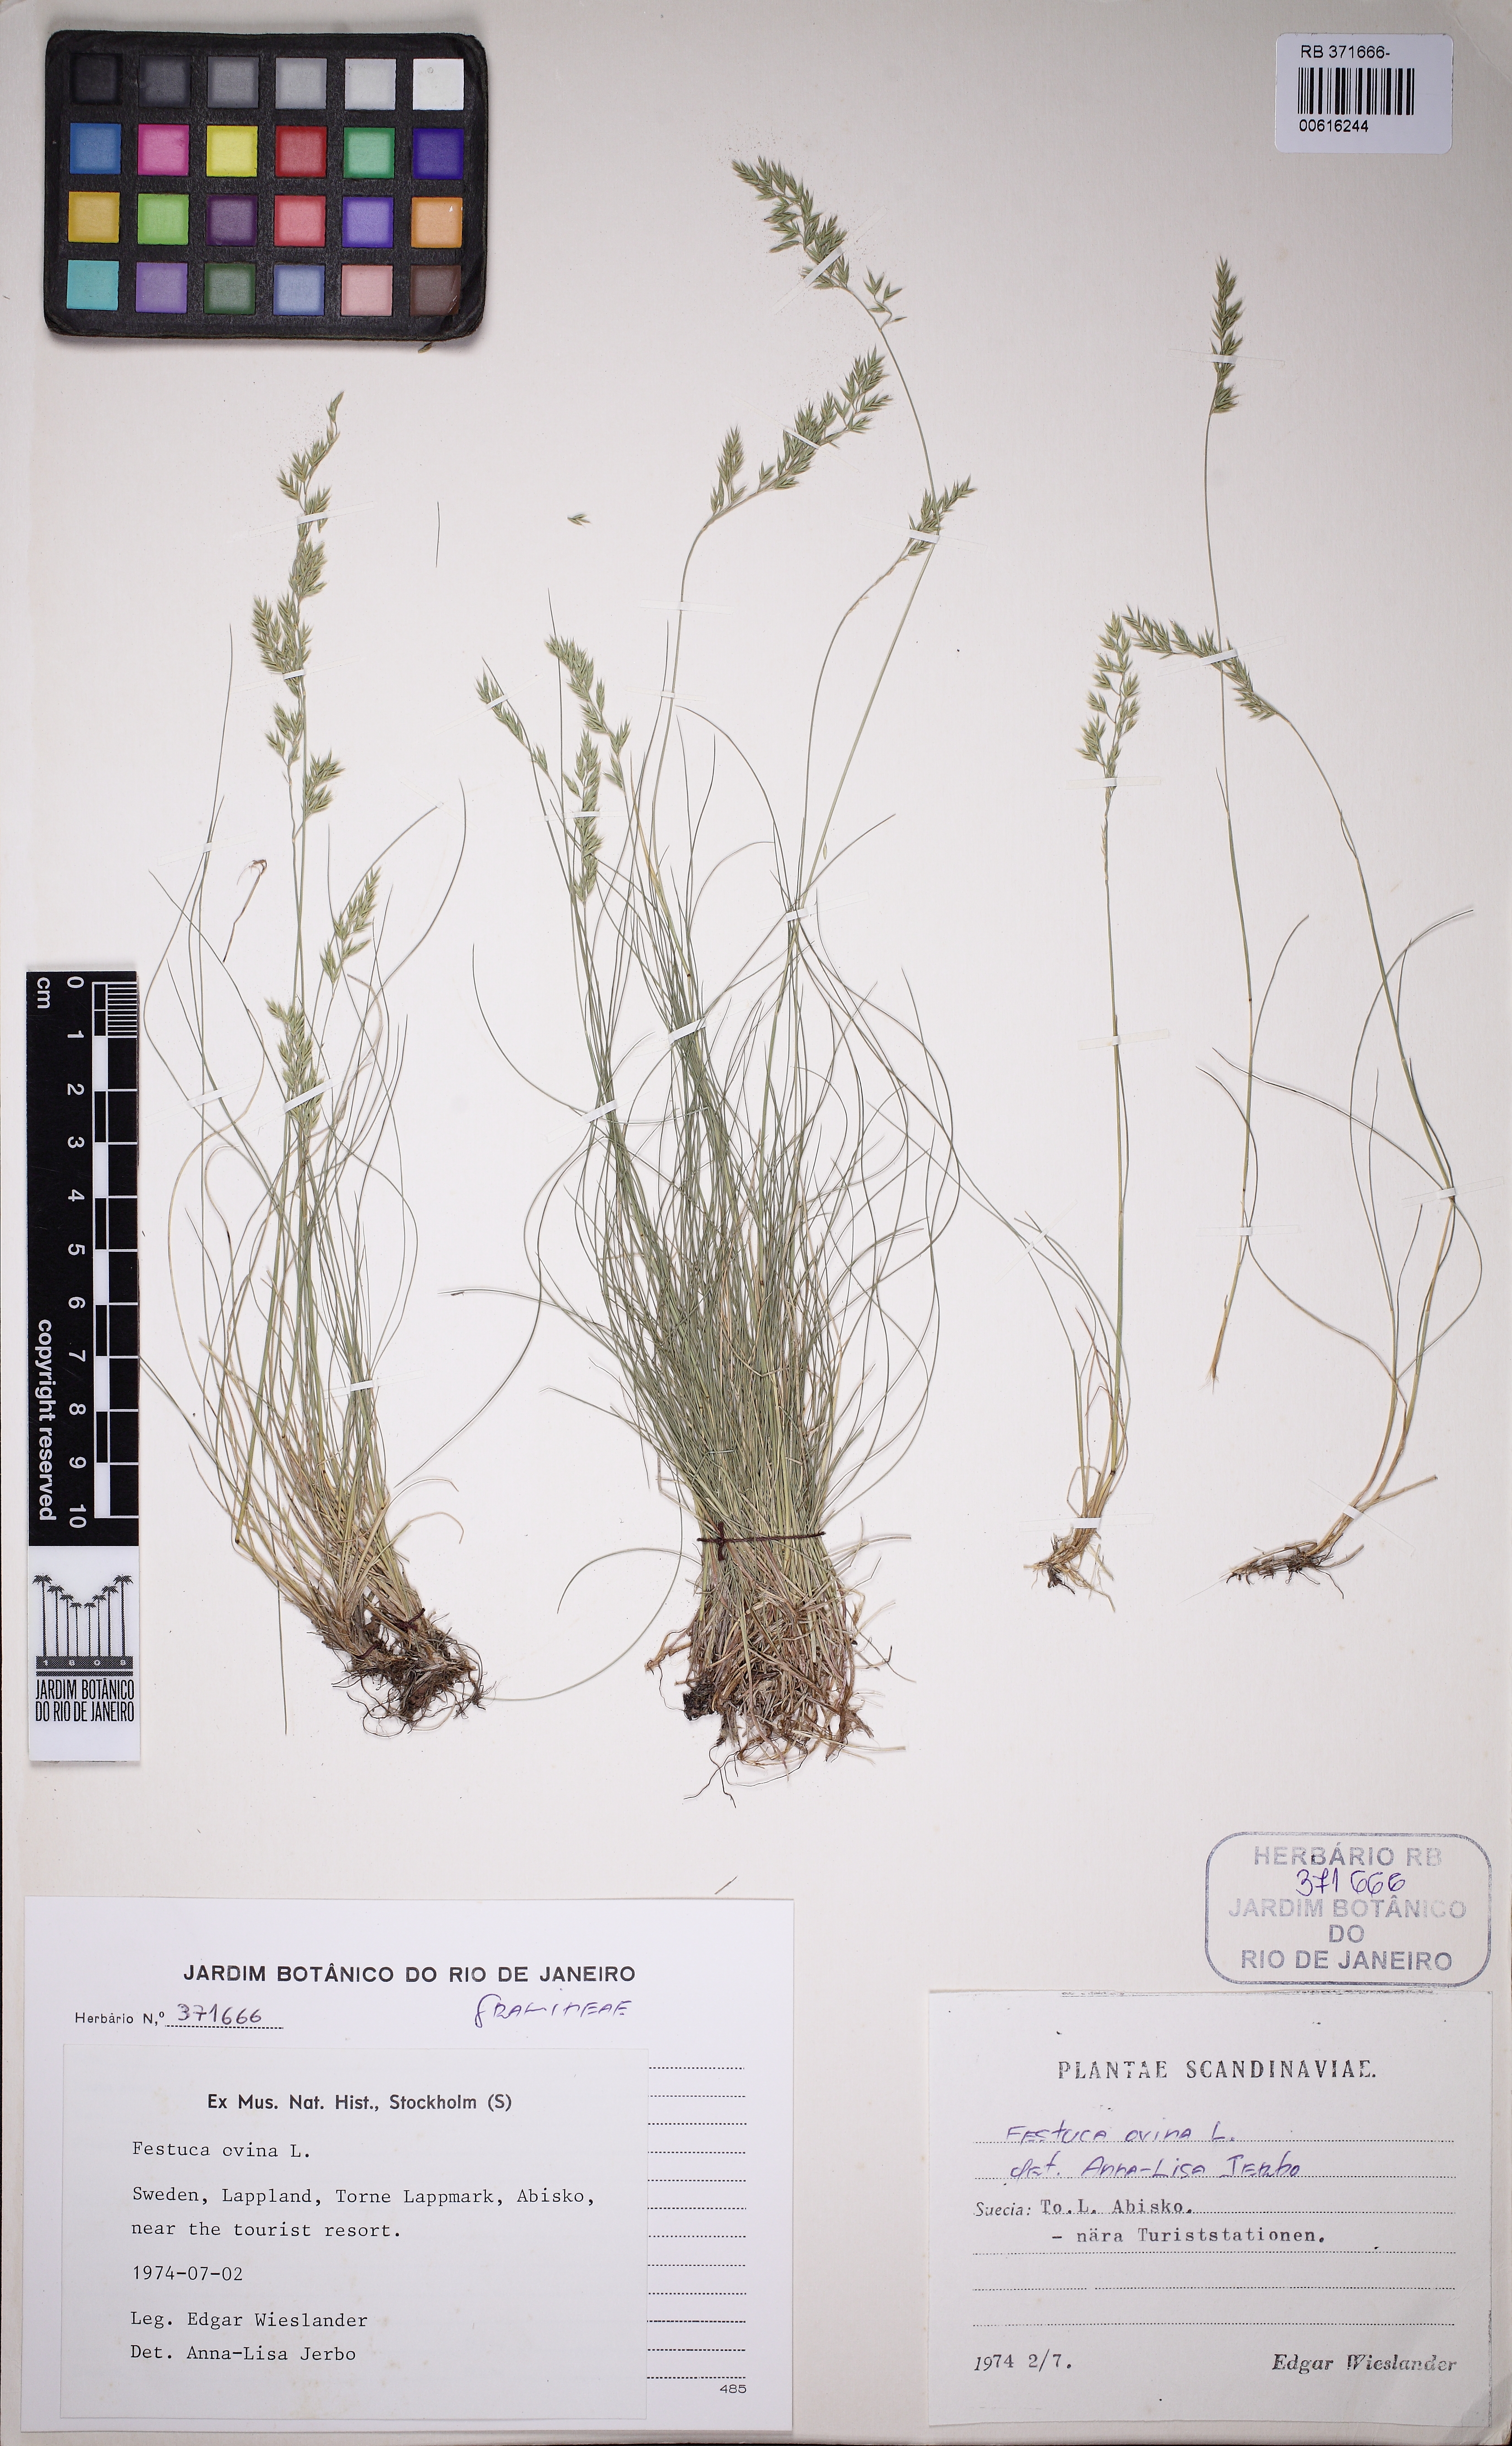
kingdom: Plantae
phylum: Tracheophyta
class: Liliopsida
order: Poales
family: Poaceae
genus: Festuca
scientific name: Festuca ovina
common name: Sheep fescue
